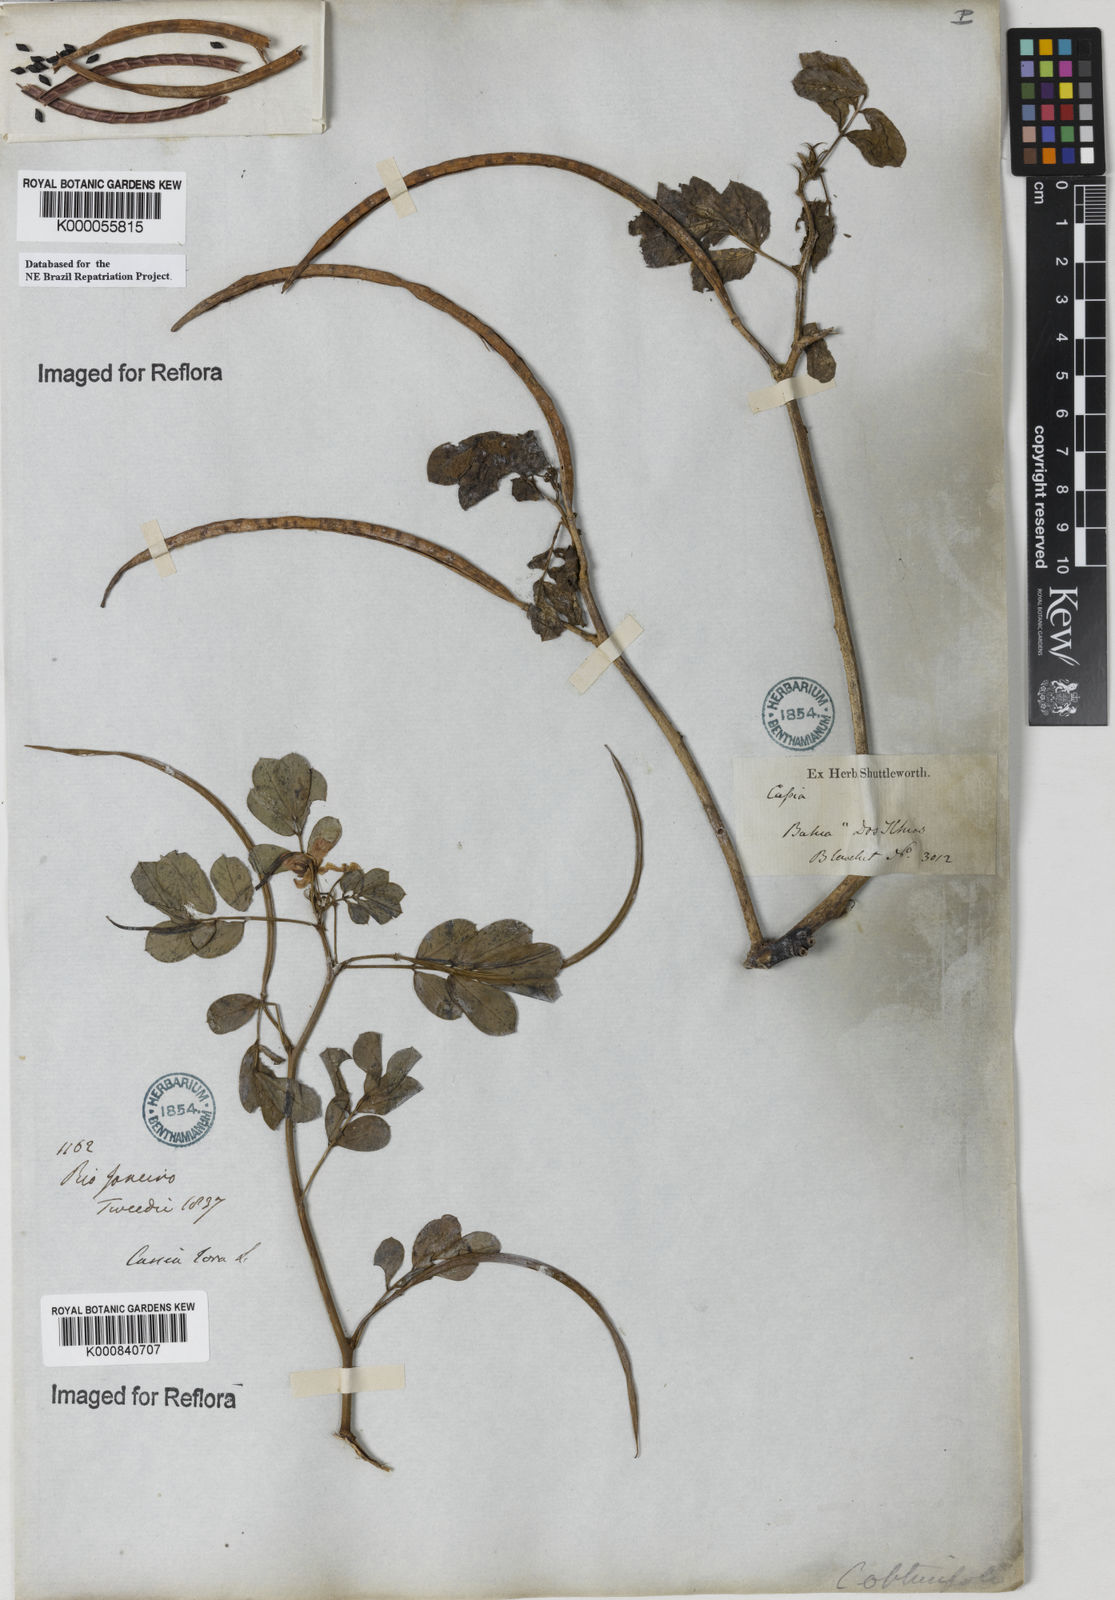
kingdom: Plantae
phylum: Tracheophyta
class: Magnoliopsida
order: Fabales
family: Fabaceae
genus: Senna
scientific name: Senna obtusifolia
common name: Java-bean
